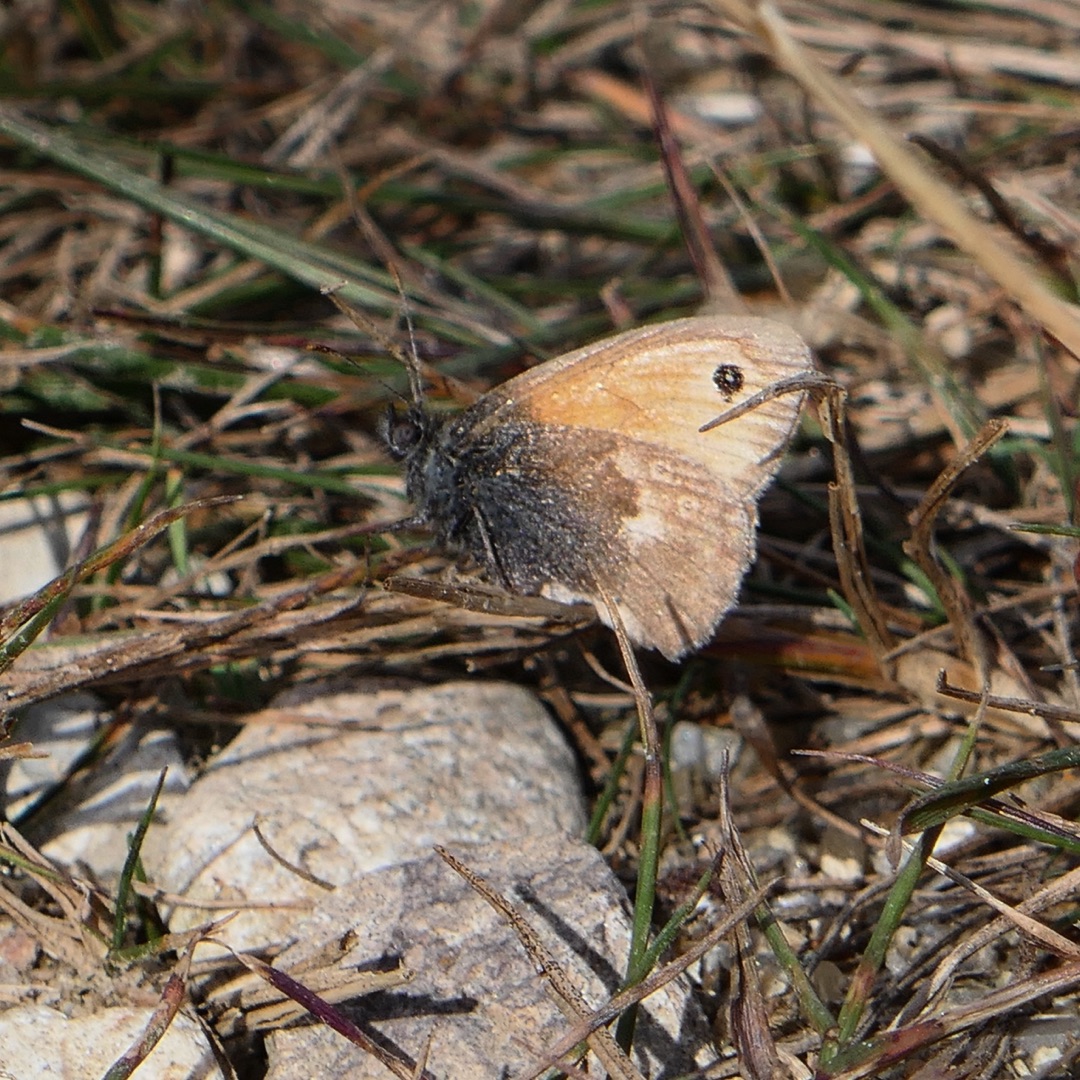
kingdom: Animalia
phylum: Arthropoda
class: Insecta
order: Lepidoptera
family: Nymphalidae
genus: Coenonympha
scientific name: Coenonympha pamphilus
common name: Okkergul randøje
